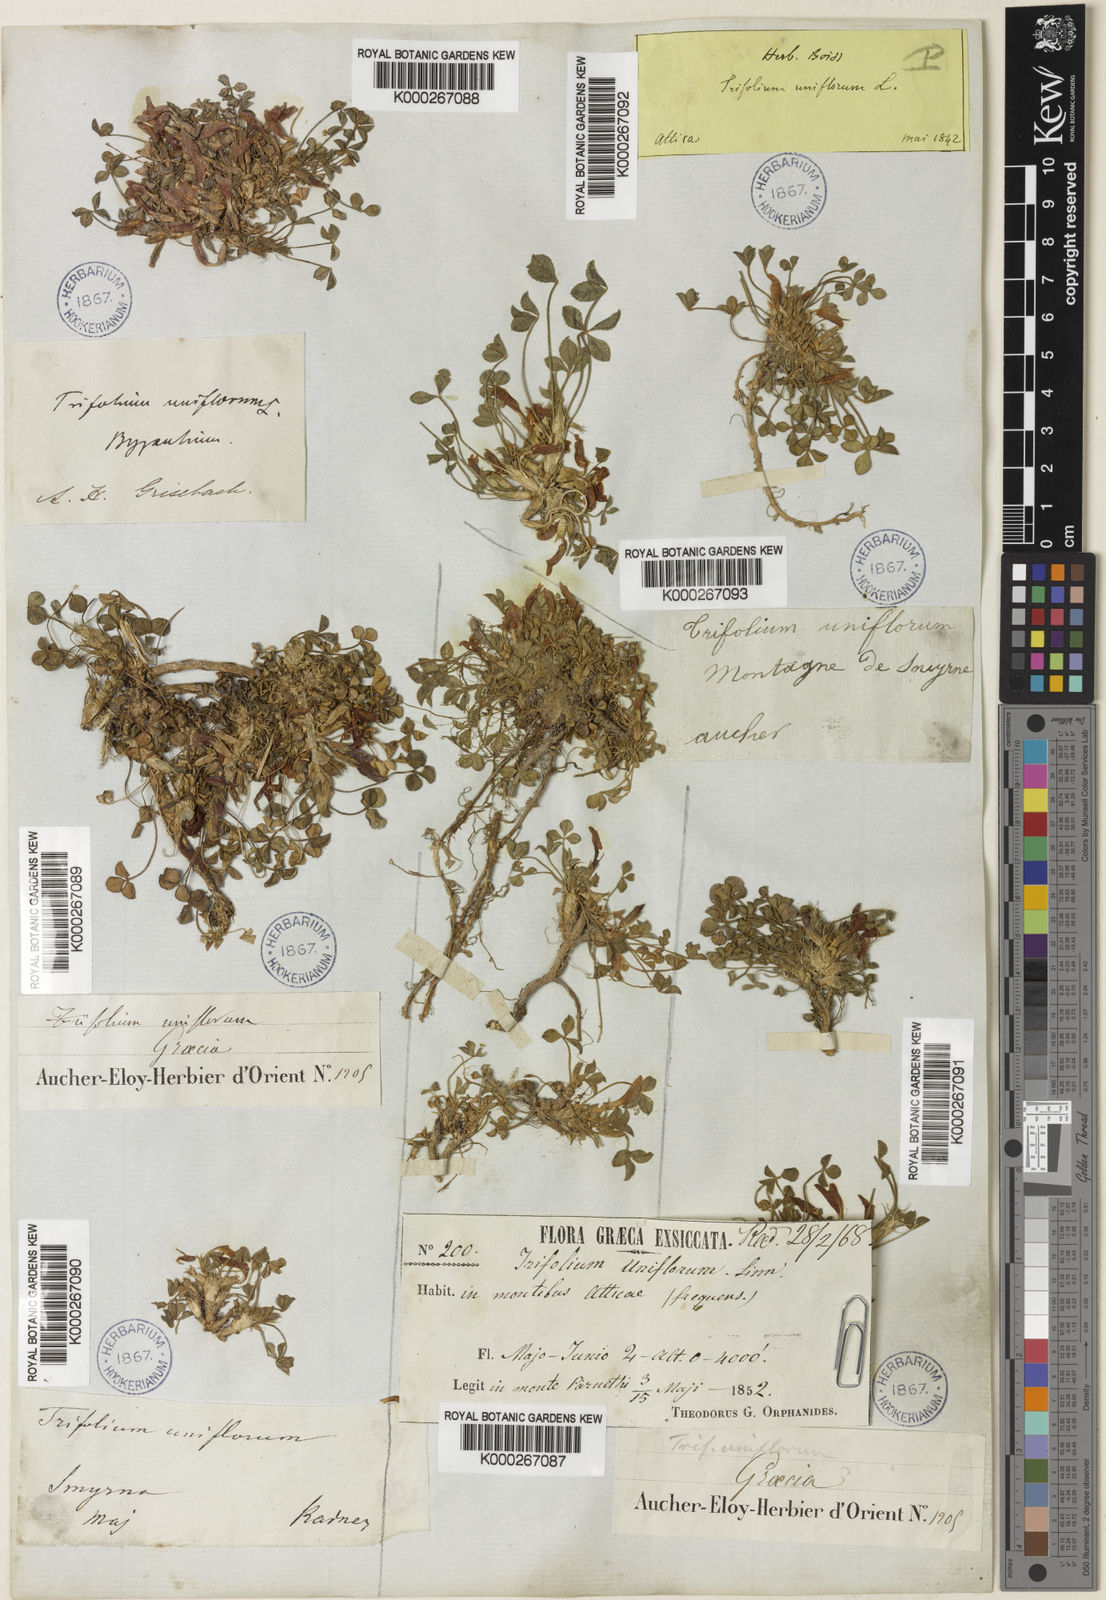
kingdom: Plantae
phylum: Tracheophyta
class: Magnoliopsida
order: Fabales
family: Fabaceae
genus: Trifolium
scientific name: Trifolium uniflorum
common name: One-flower clover
